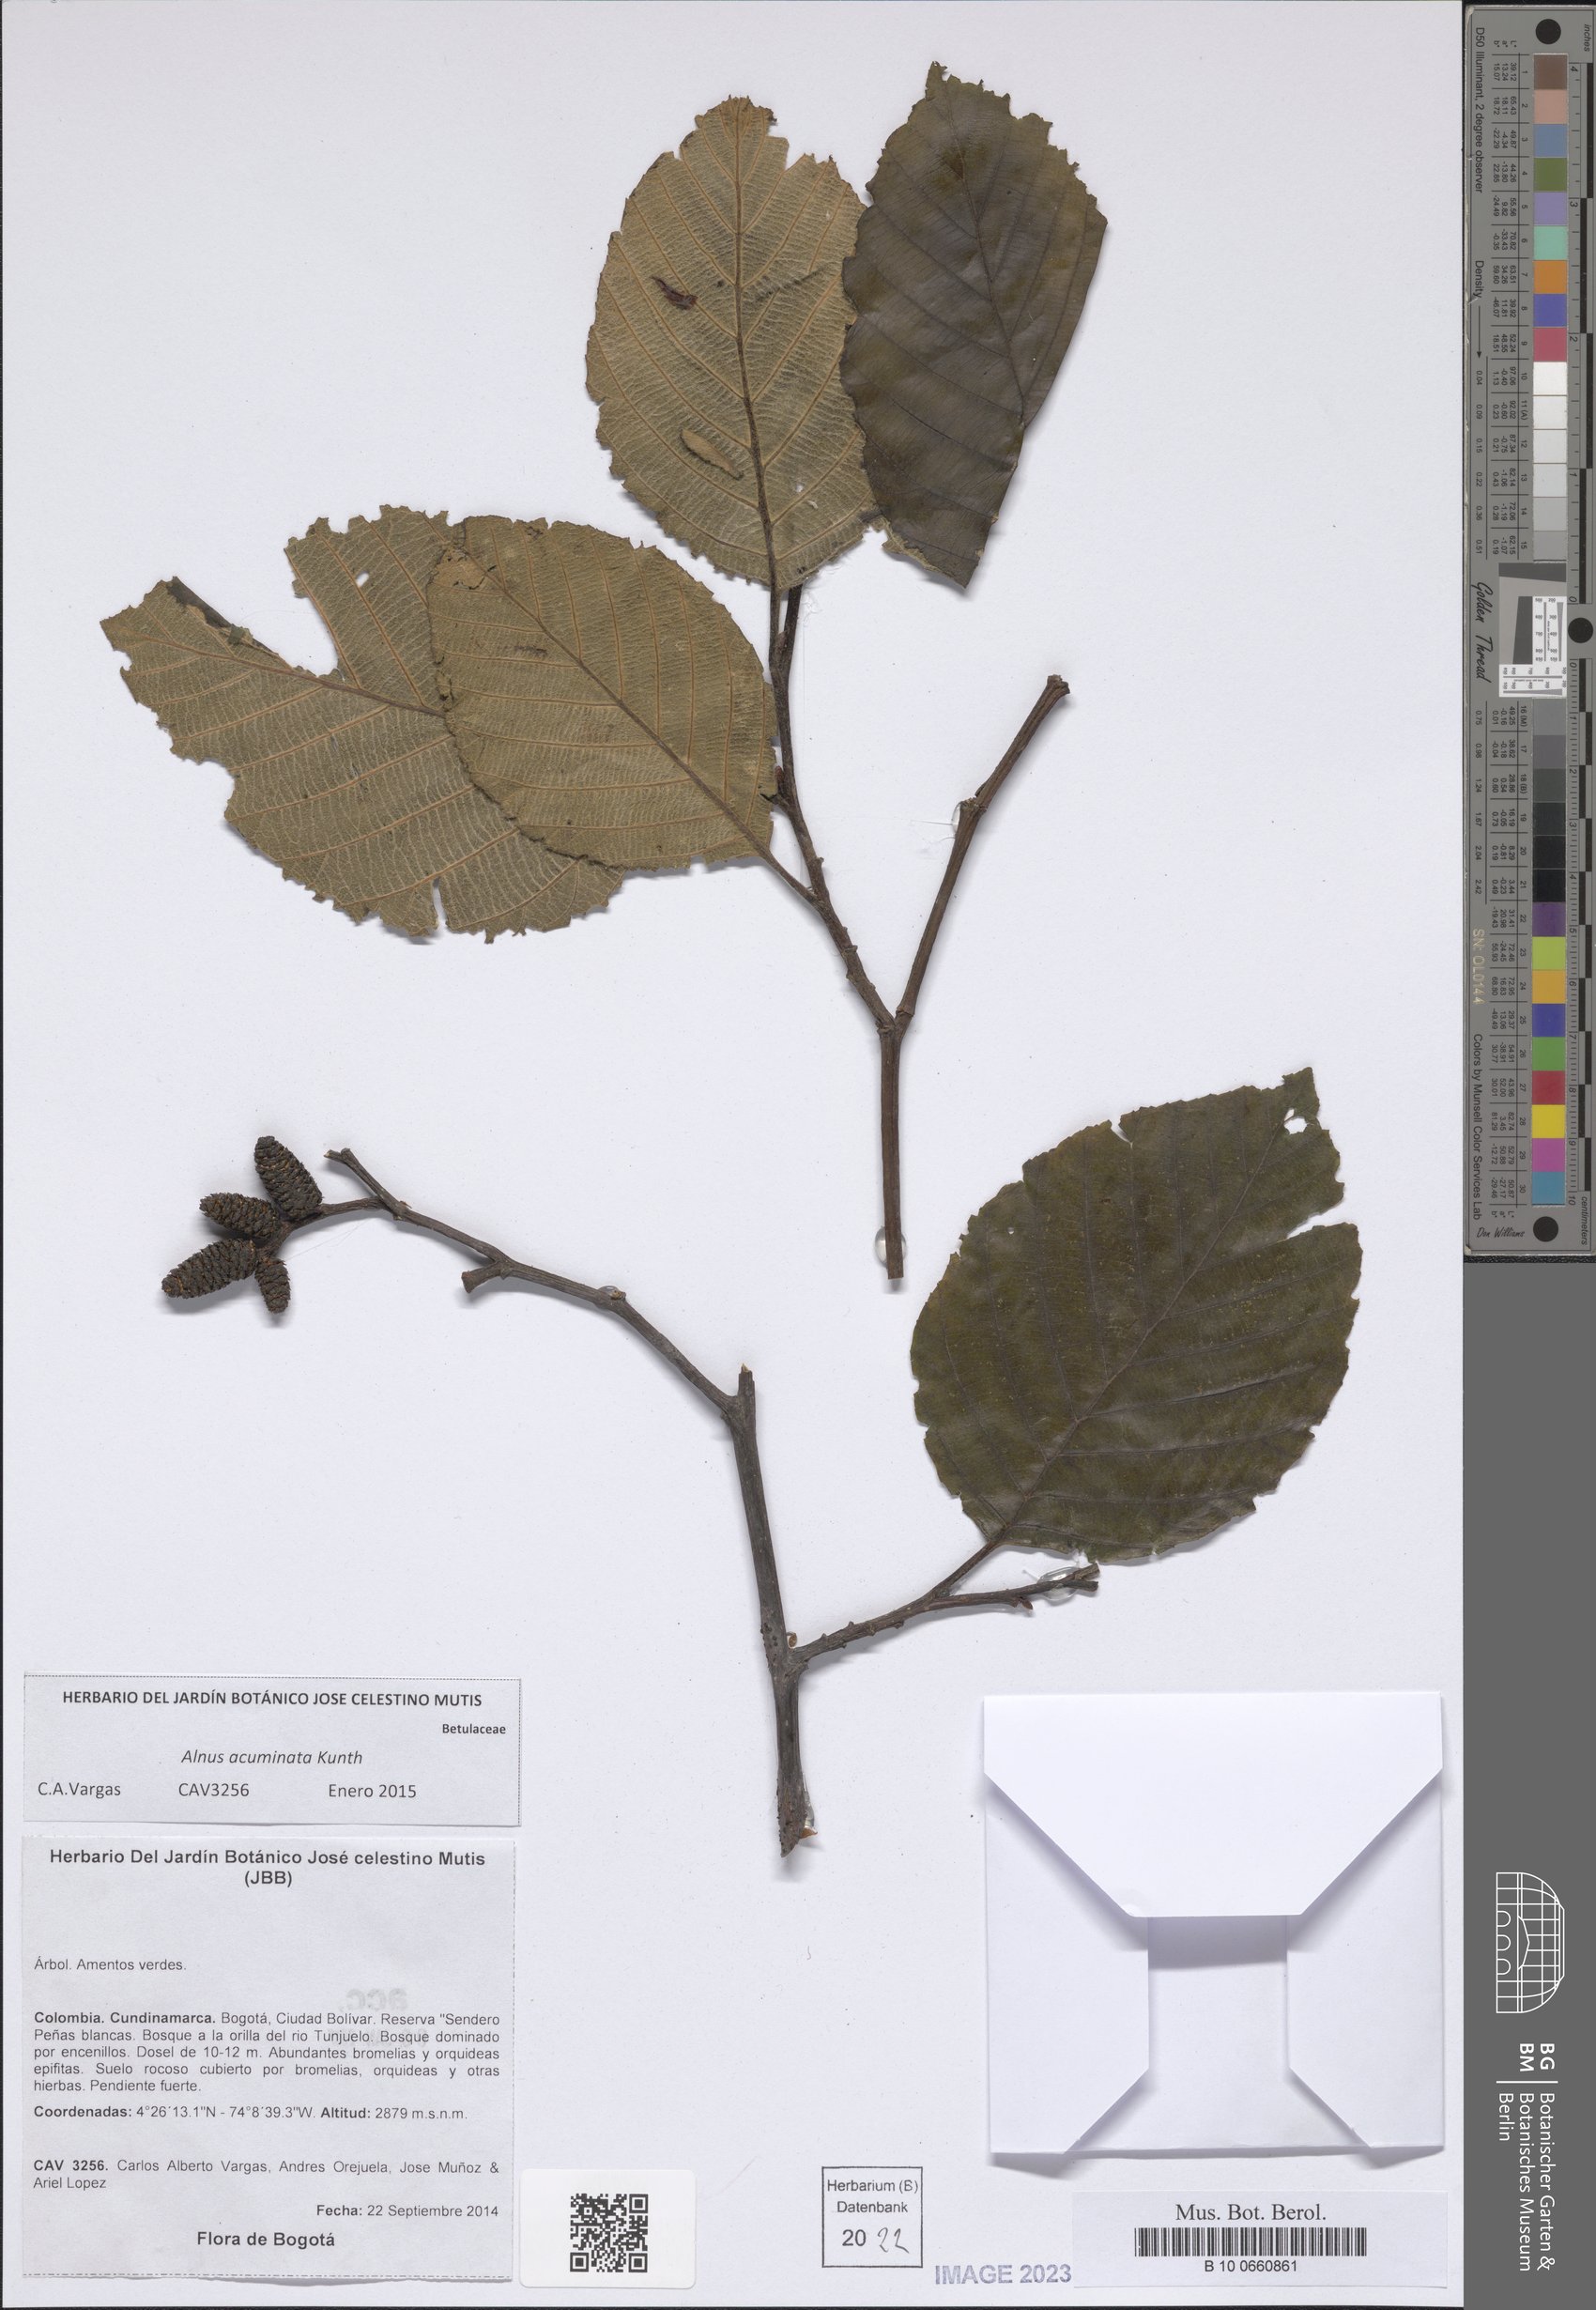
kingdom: Plantae
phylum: Tracheophyta
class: Magnoliopsida
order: Fagales
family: Betulaceae
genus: Alnus
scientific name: Alnus acuminata
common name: Alder
